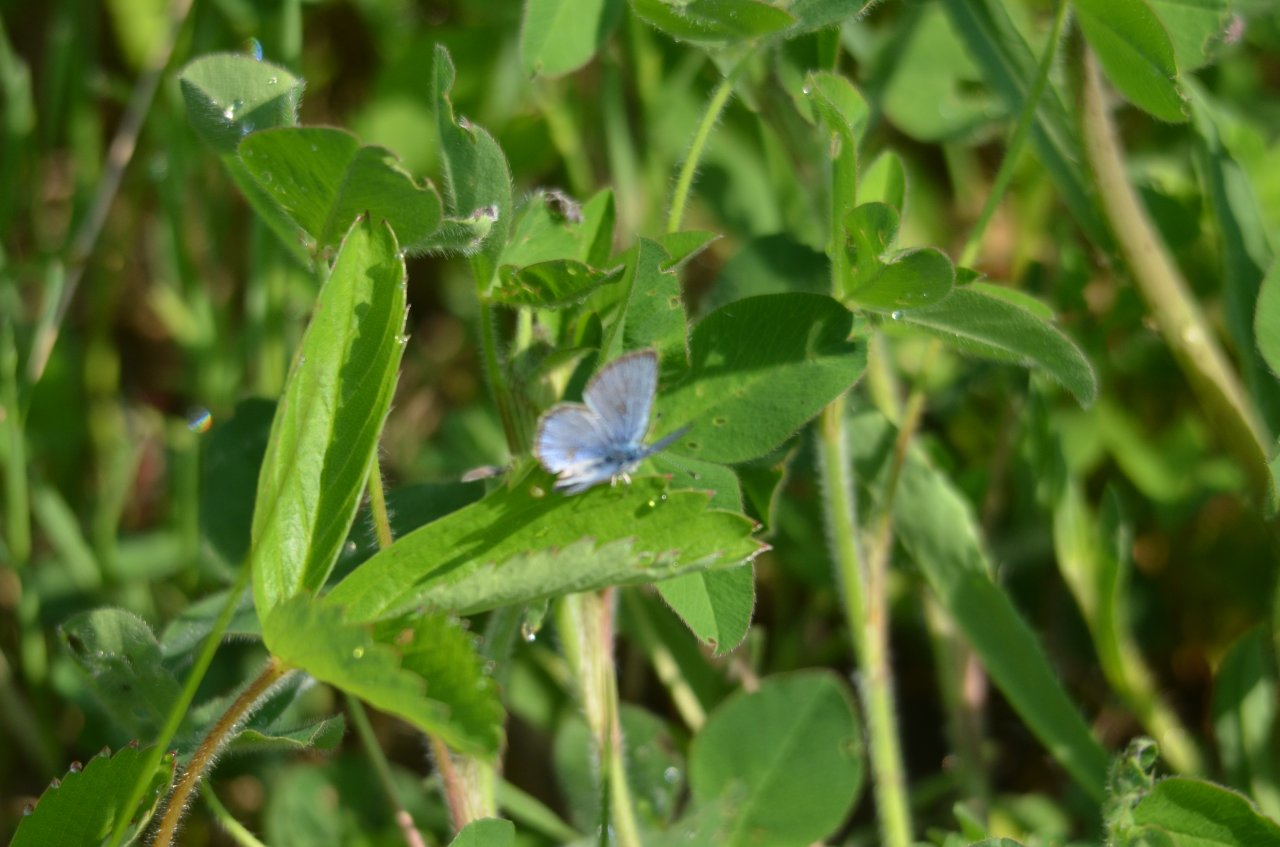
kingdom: Animalia
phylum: Arthropoda
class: Insecta
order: Lepidoptera
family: Lycaenidae
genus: Glaucopsyche
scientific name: Glaucopsyche lygdamus
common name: Silvery Blue
